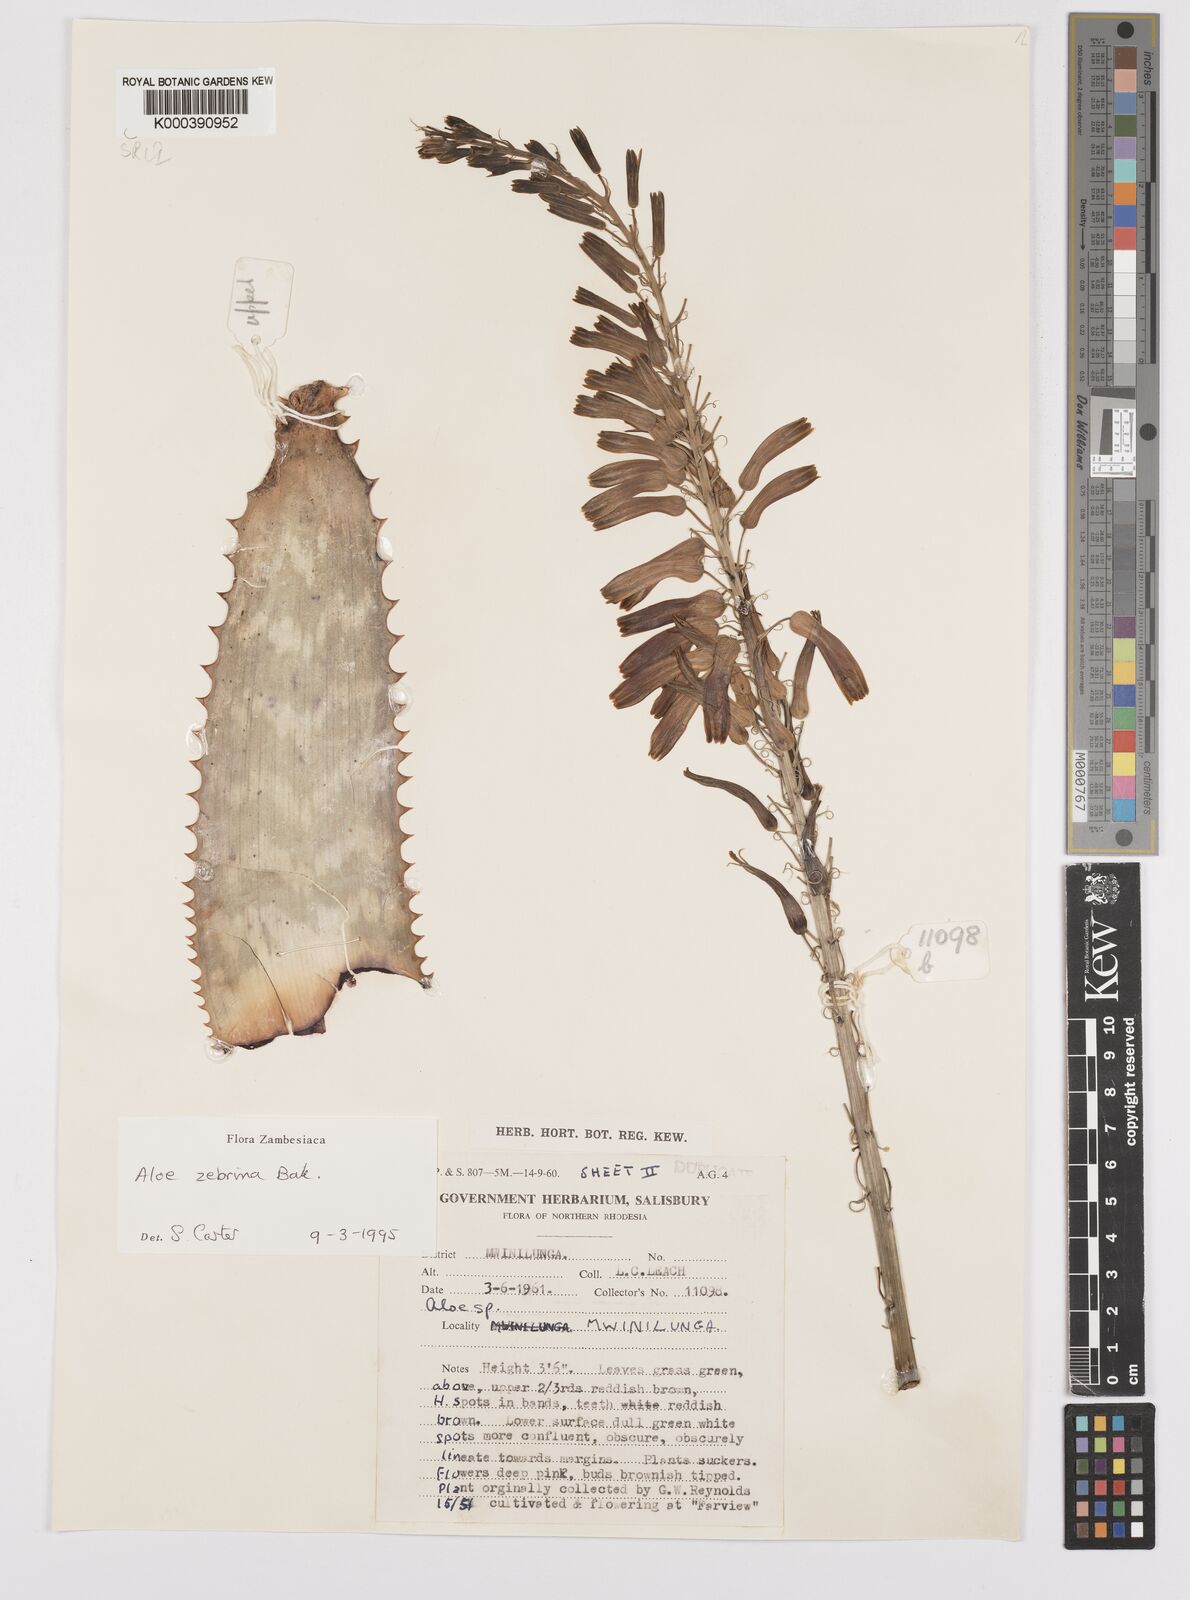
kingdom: Plantae
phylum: Tracheophyta
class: Liliopsida
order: Asparagales
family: Asphodelaceae
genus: Aloe
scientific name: Aloe zebrina
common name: Zebra-leaf aloe
